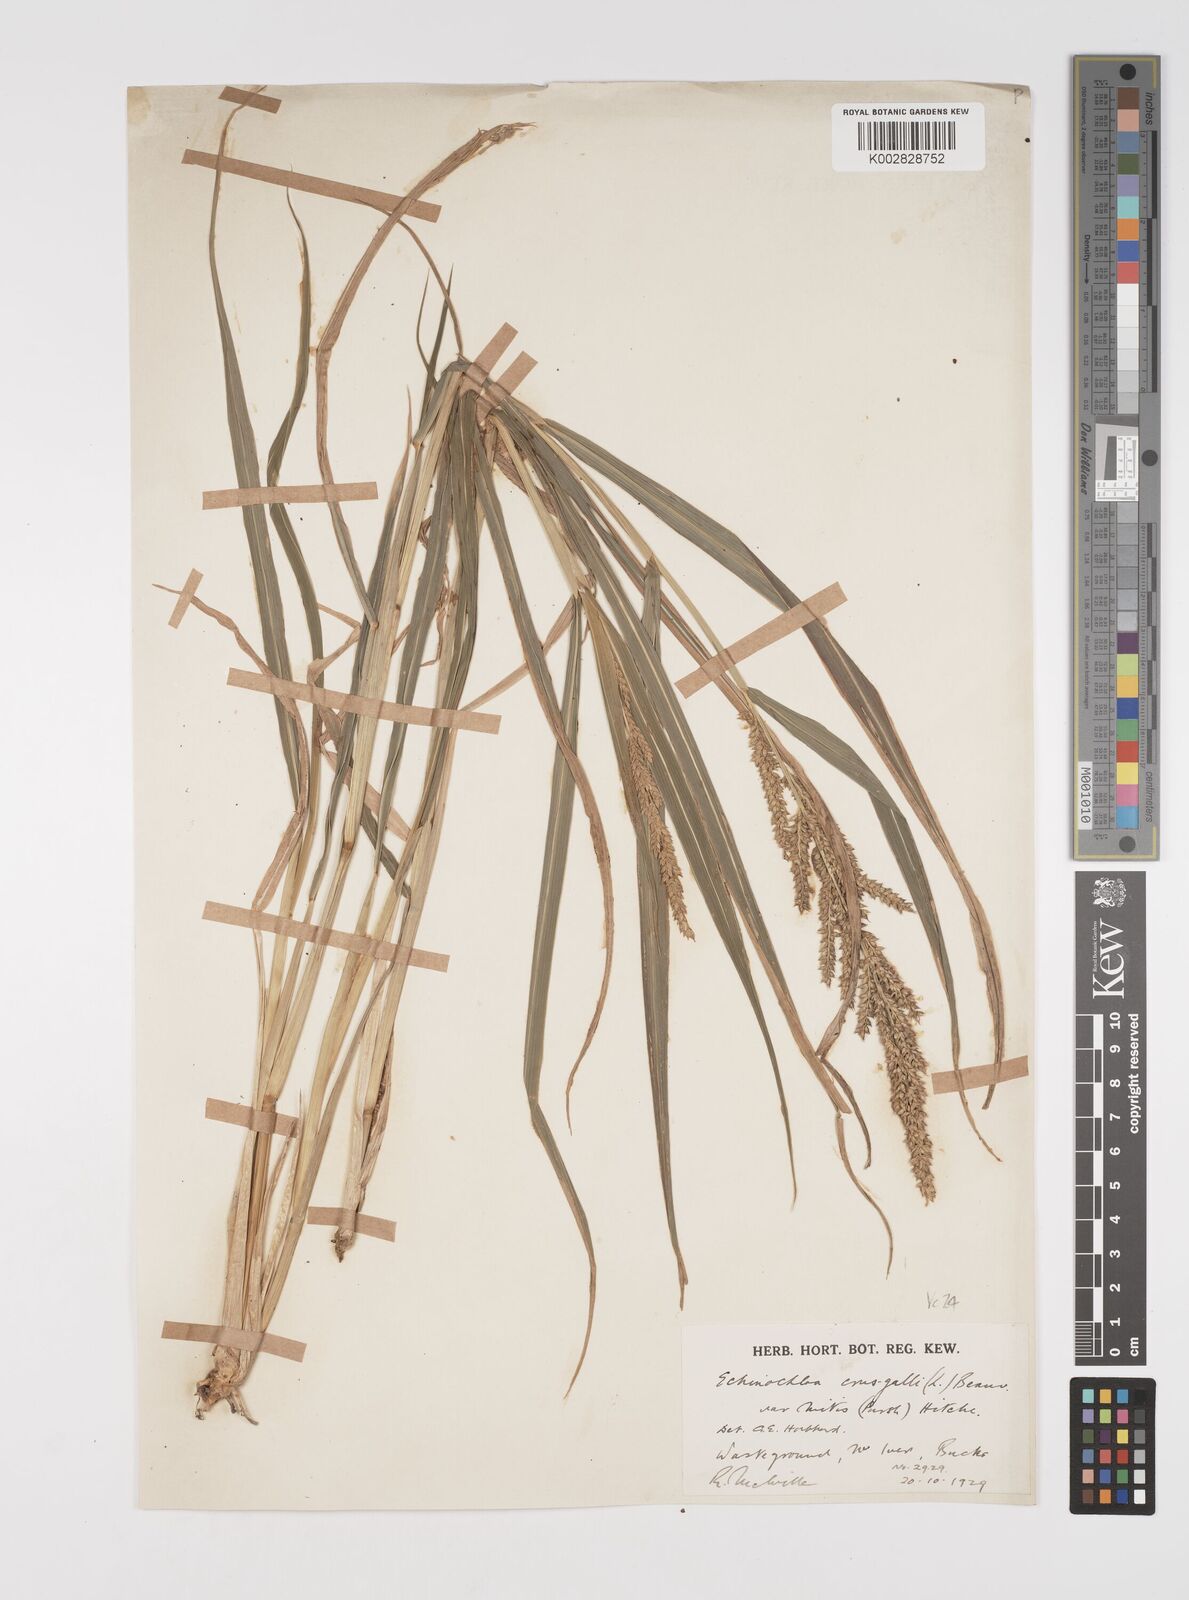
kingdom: Plantae
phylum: Tracheophyta
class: Liliopsida
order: Poales
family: Poaceae
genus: Echinochloa
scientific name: Echinochloa crus-galli
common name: Cockspur
